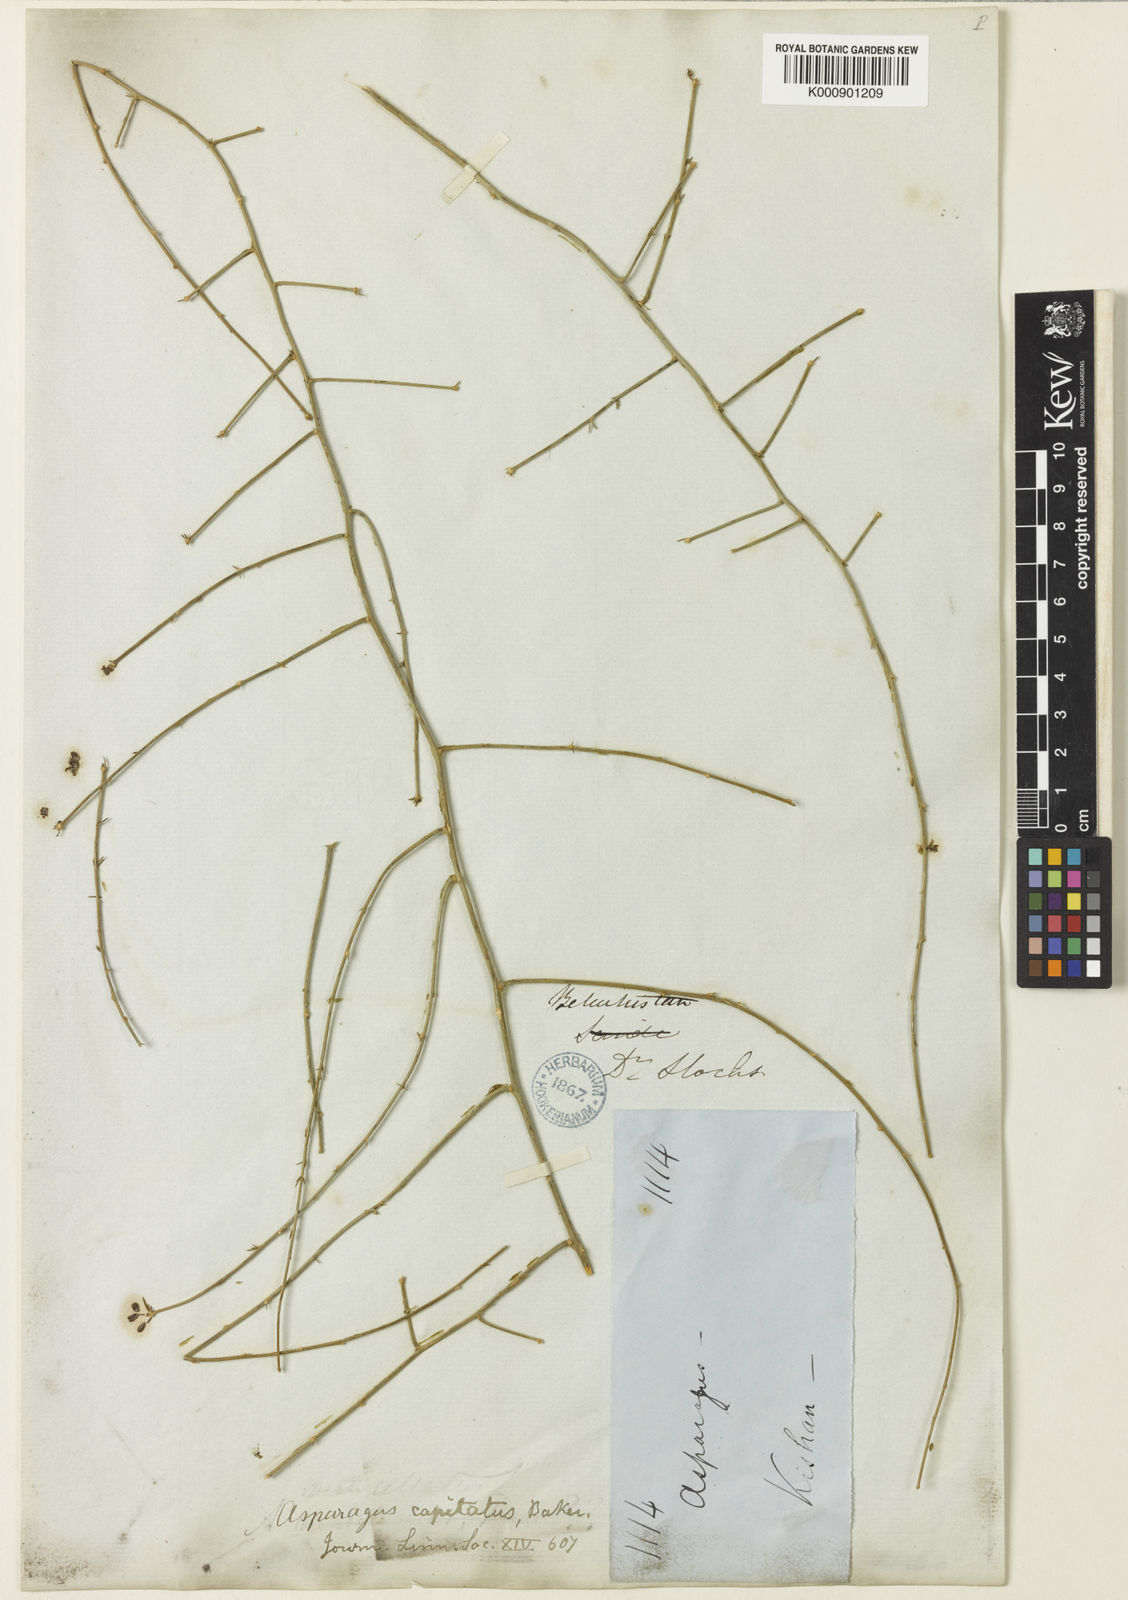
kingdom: Plantae
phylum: Tracheophyta
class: Liliopsida
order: Asparagales
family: Asparagaceae
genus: Asparagus
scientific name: Asparagus capitatus
